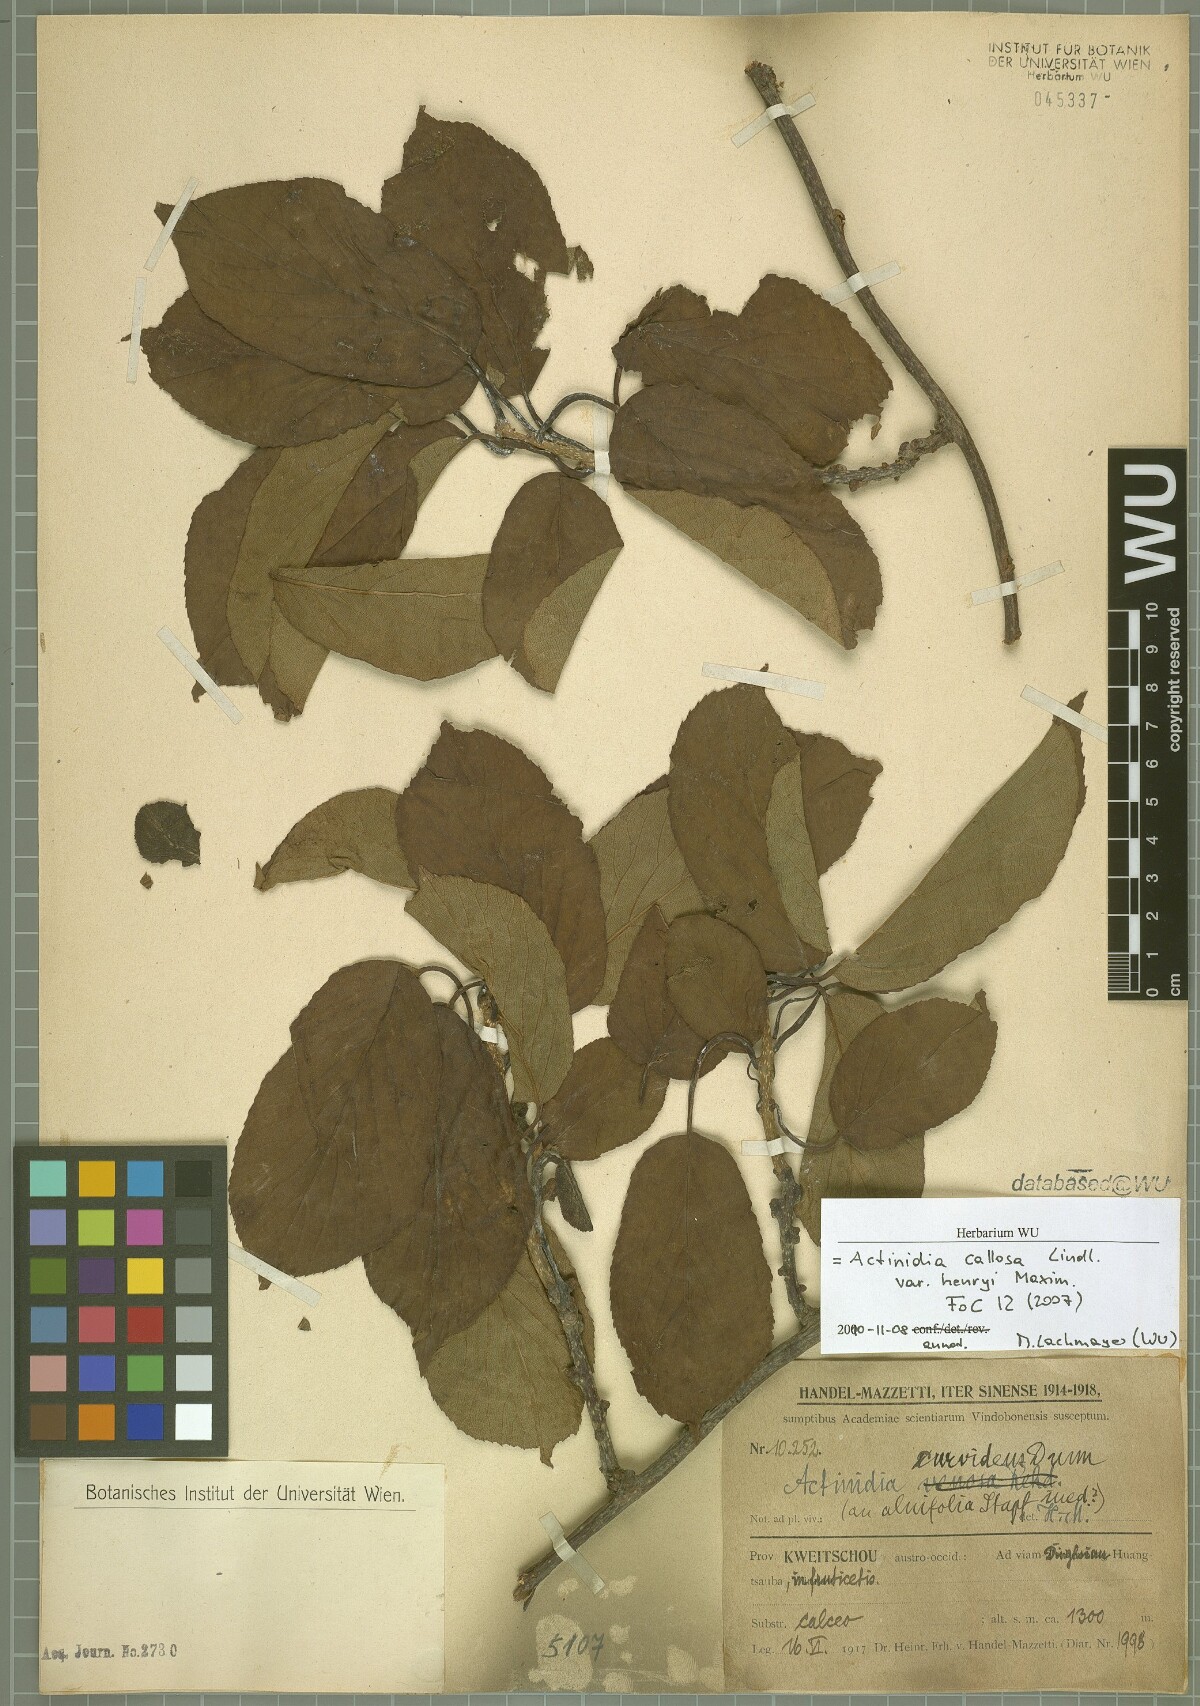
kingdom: Plantae
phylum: Tracheophyta
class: Magnoliopsida
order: Ericales
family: Actinidiaceae
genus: Actinidia
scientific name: Actinidia callosa
